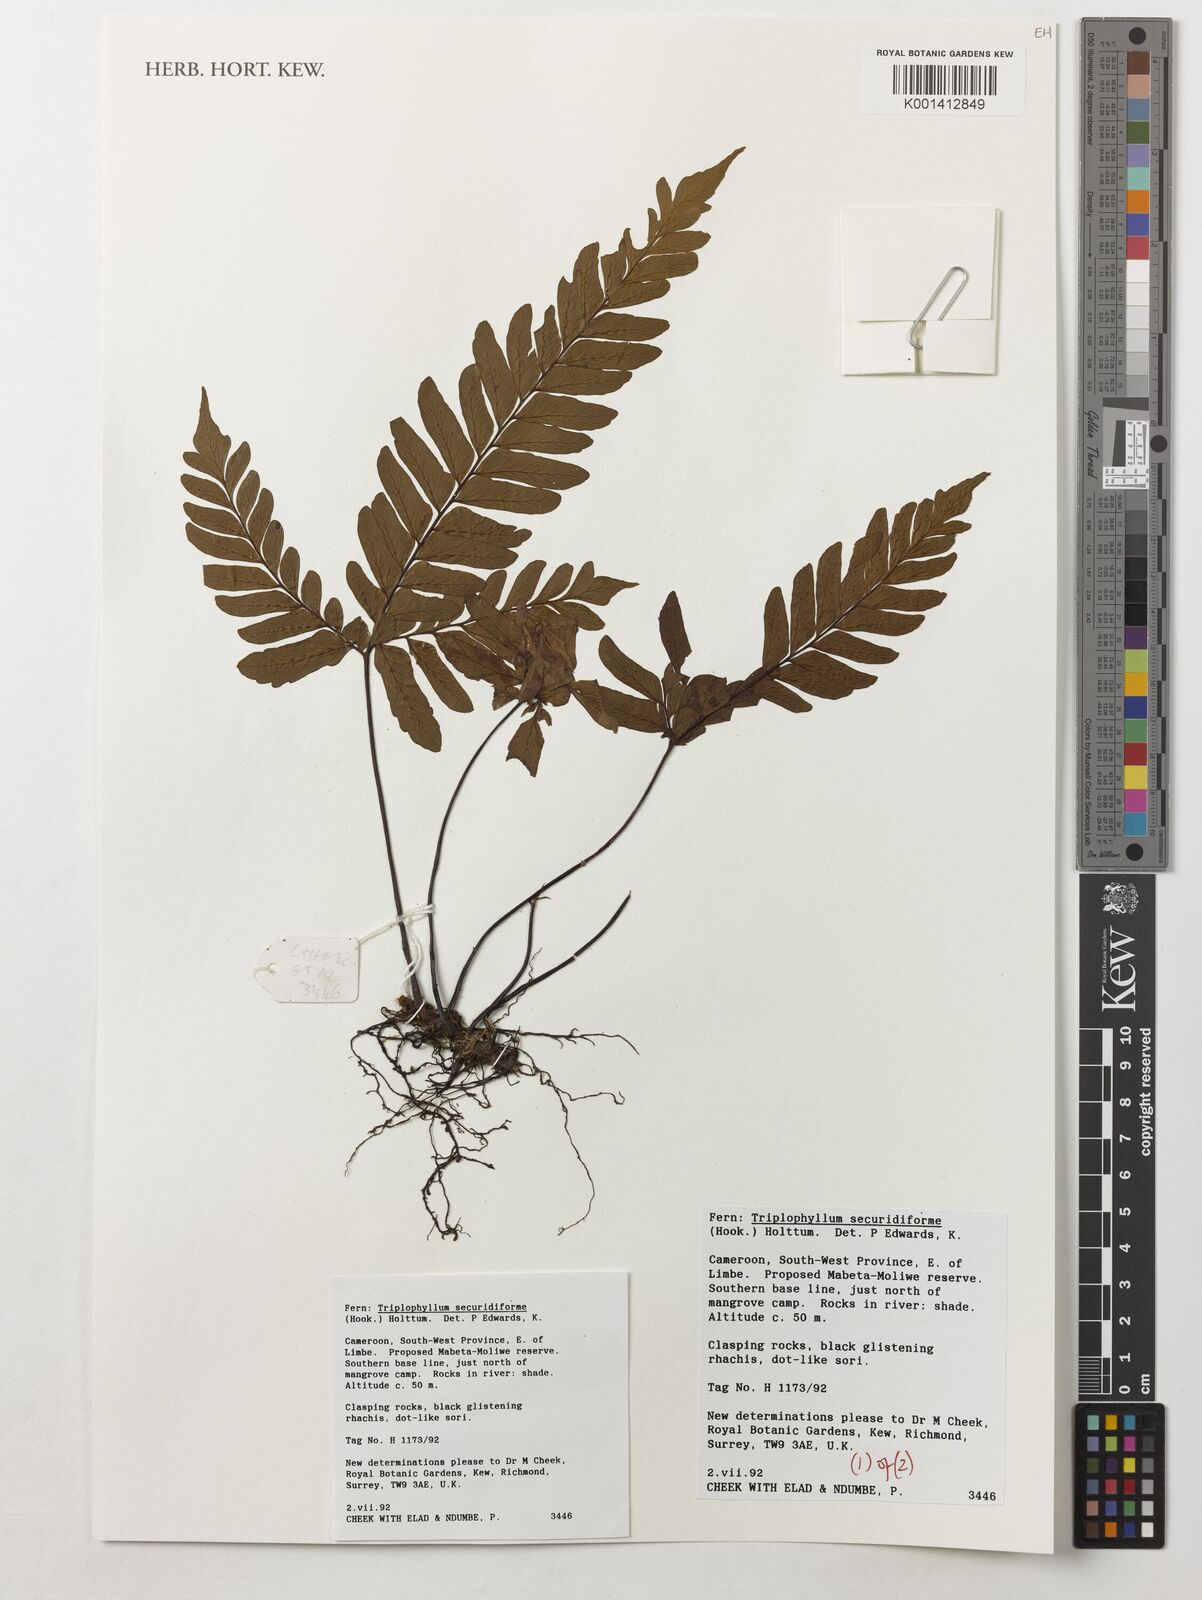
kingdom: Plantae
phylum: Tracheophyta
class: Polypodiopsida
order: Polypodiales
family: Tectariaceae
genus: Triplophyllum
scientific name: Triplophyllum securidiforme
